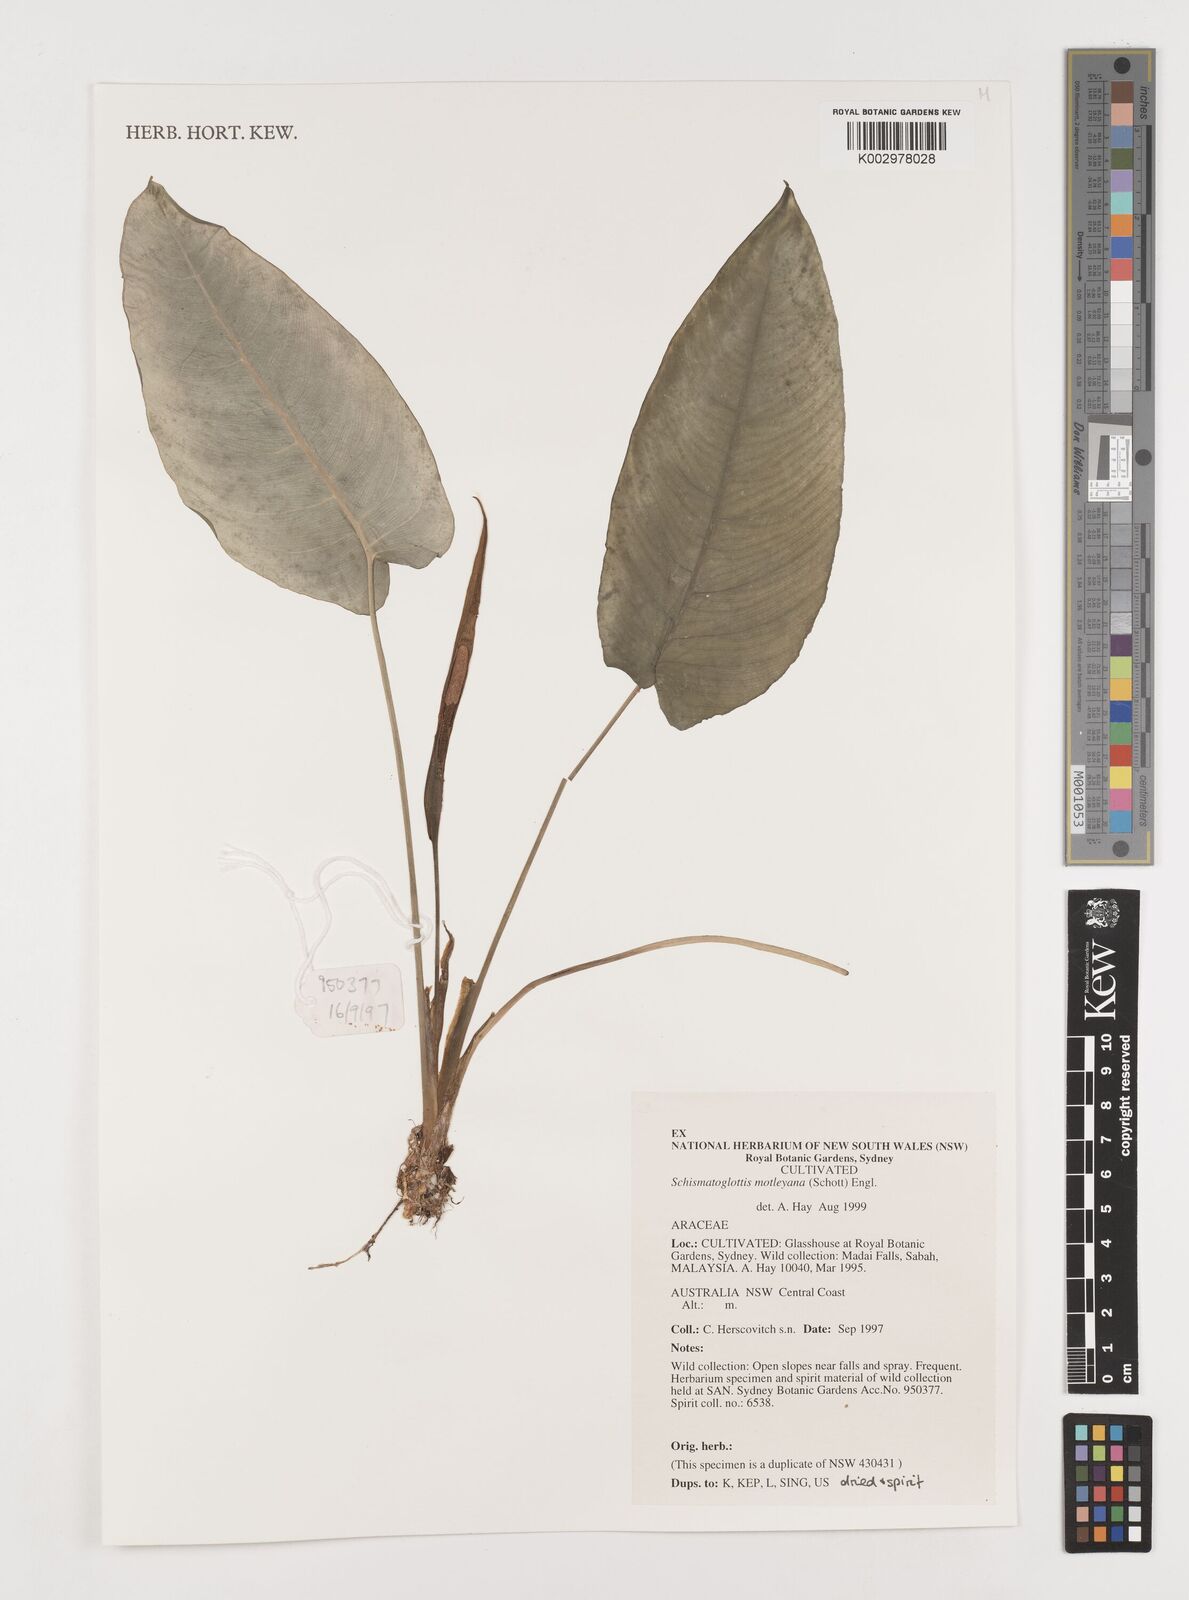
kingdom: Plantae
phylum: Tracheophyta
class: Liliopsida
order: Alismatales
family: Araceae
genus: Schismatoglottis
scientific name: Schismatoglottis motleyana
